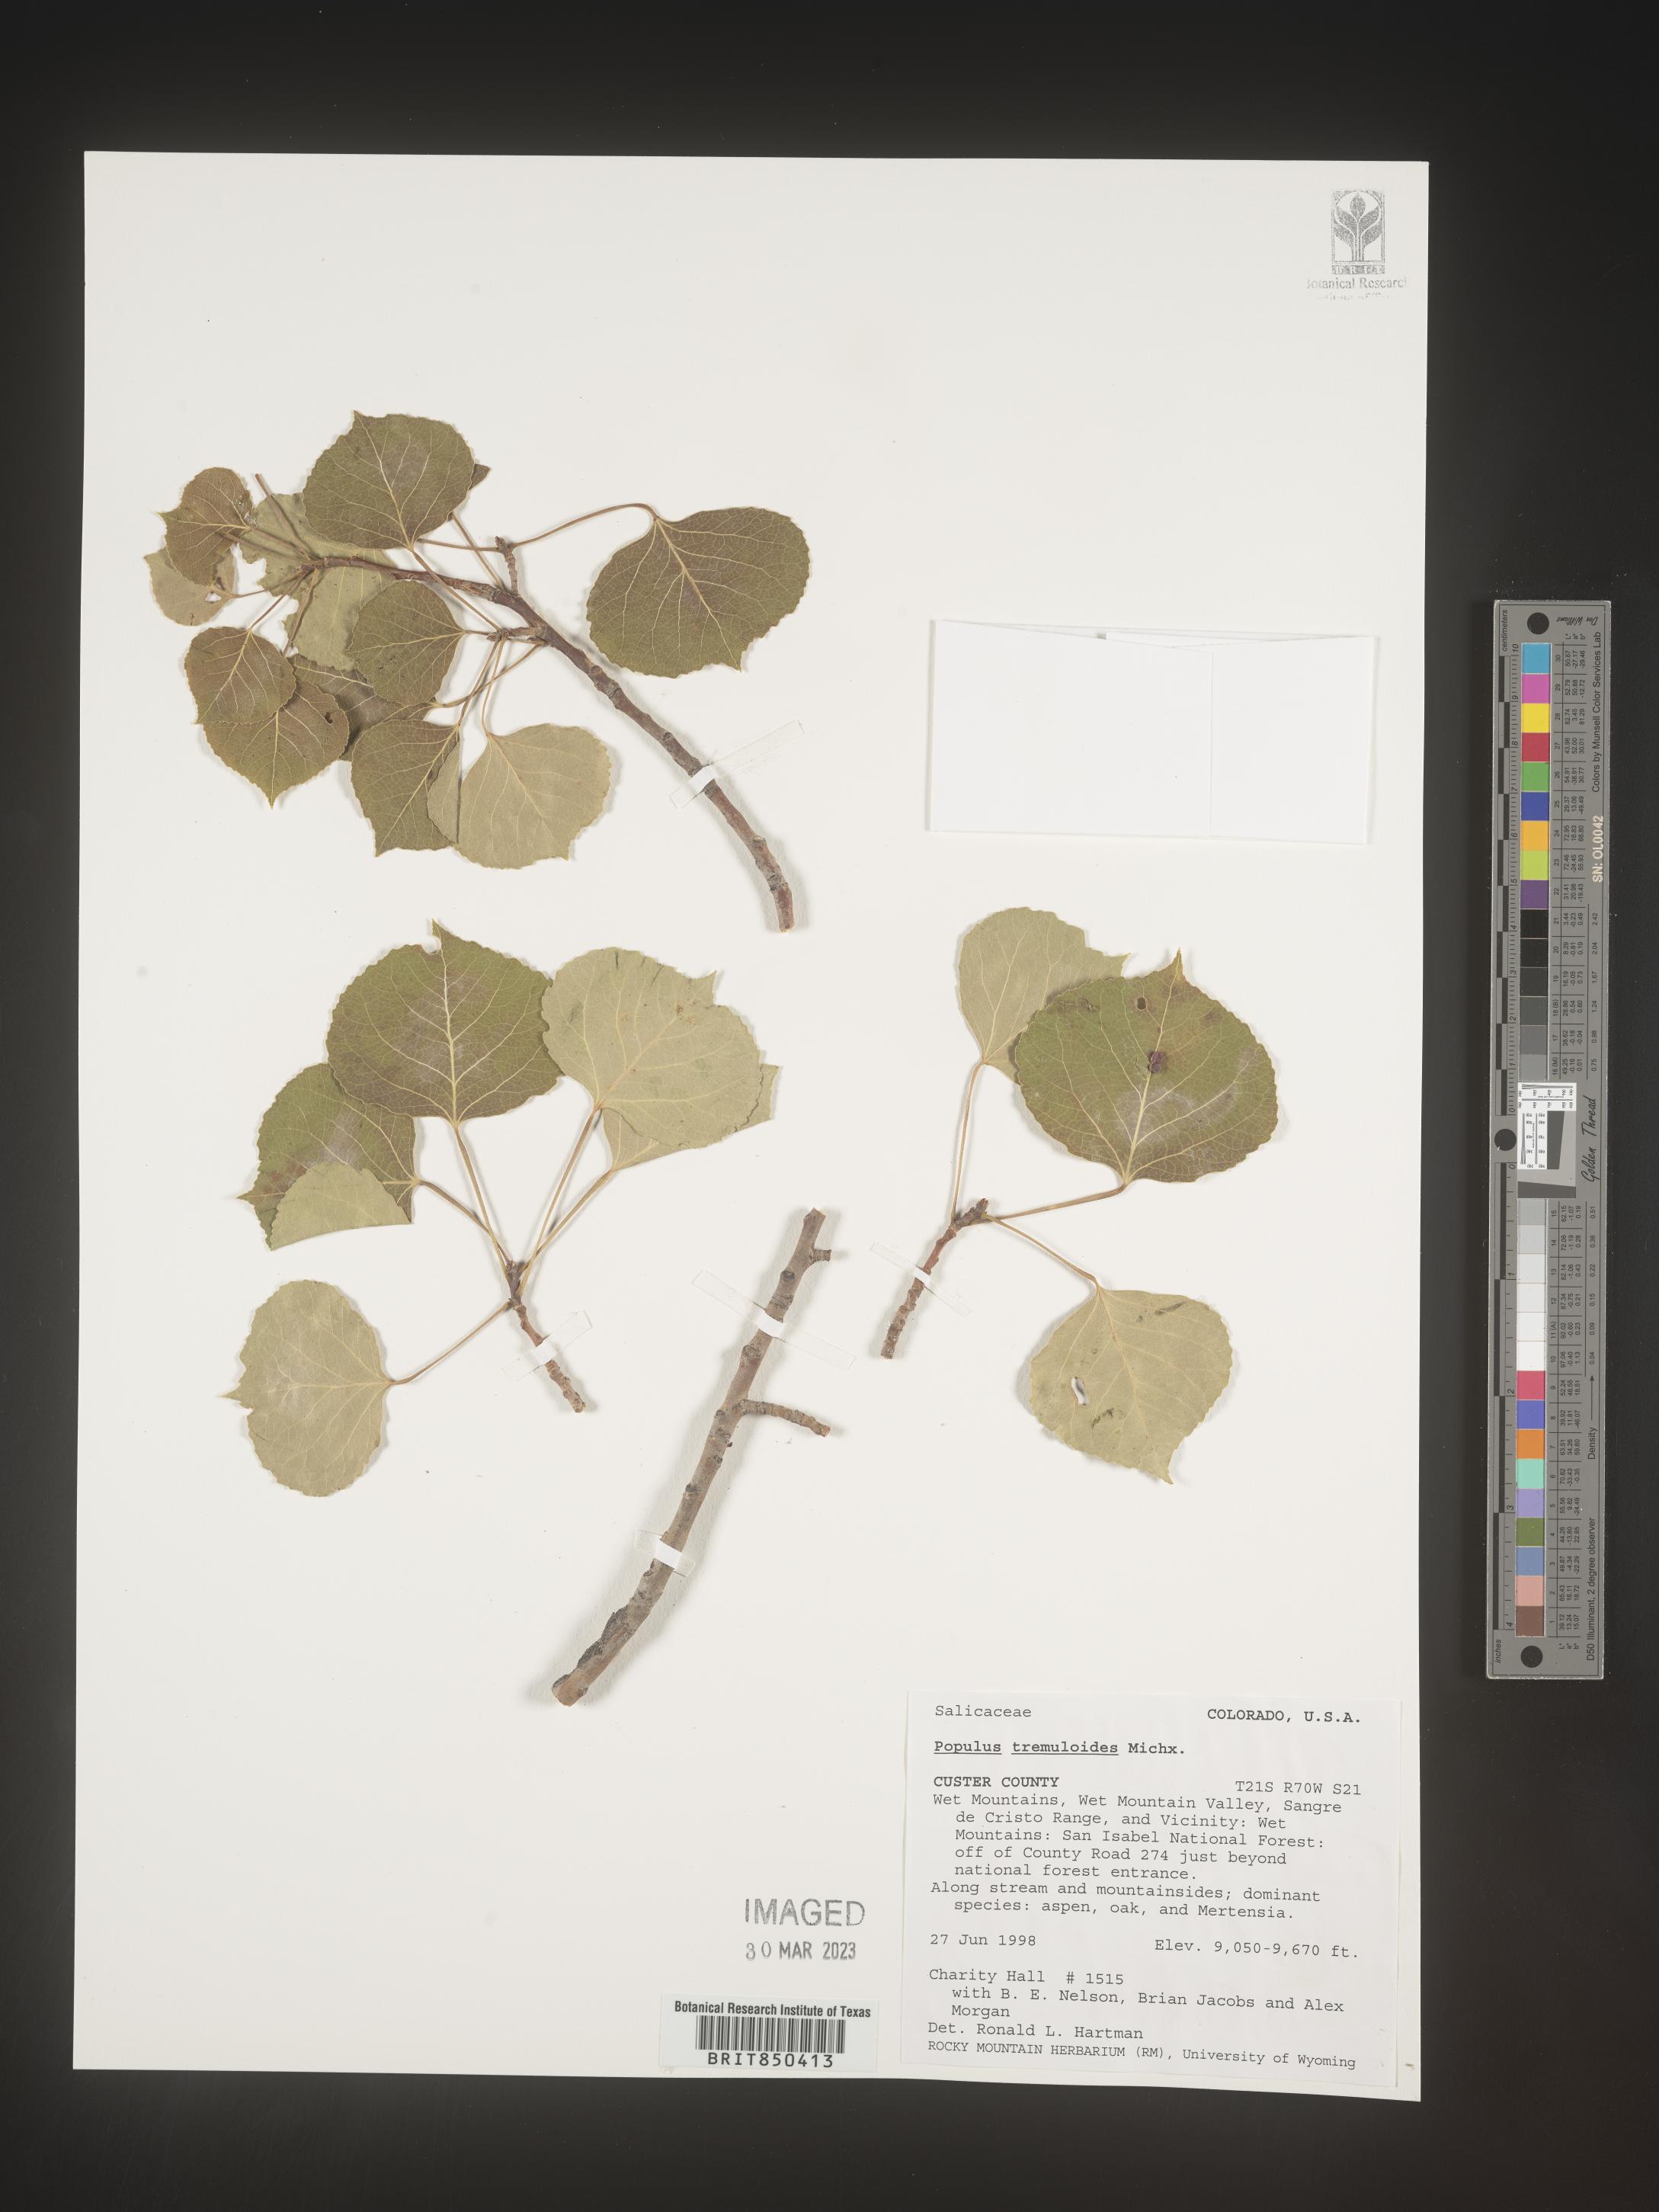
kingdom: Plantae
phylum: Tracheophyta
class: Magnoliopsida
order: Malpighiales
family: Salicaceae
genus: Populus
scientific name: Populus tremuloides
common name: Quaking aspen
